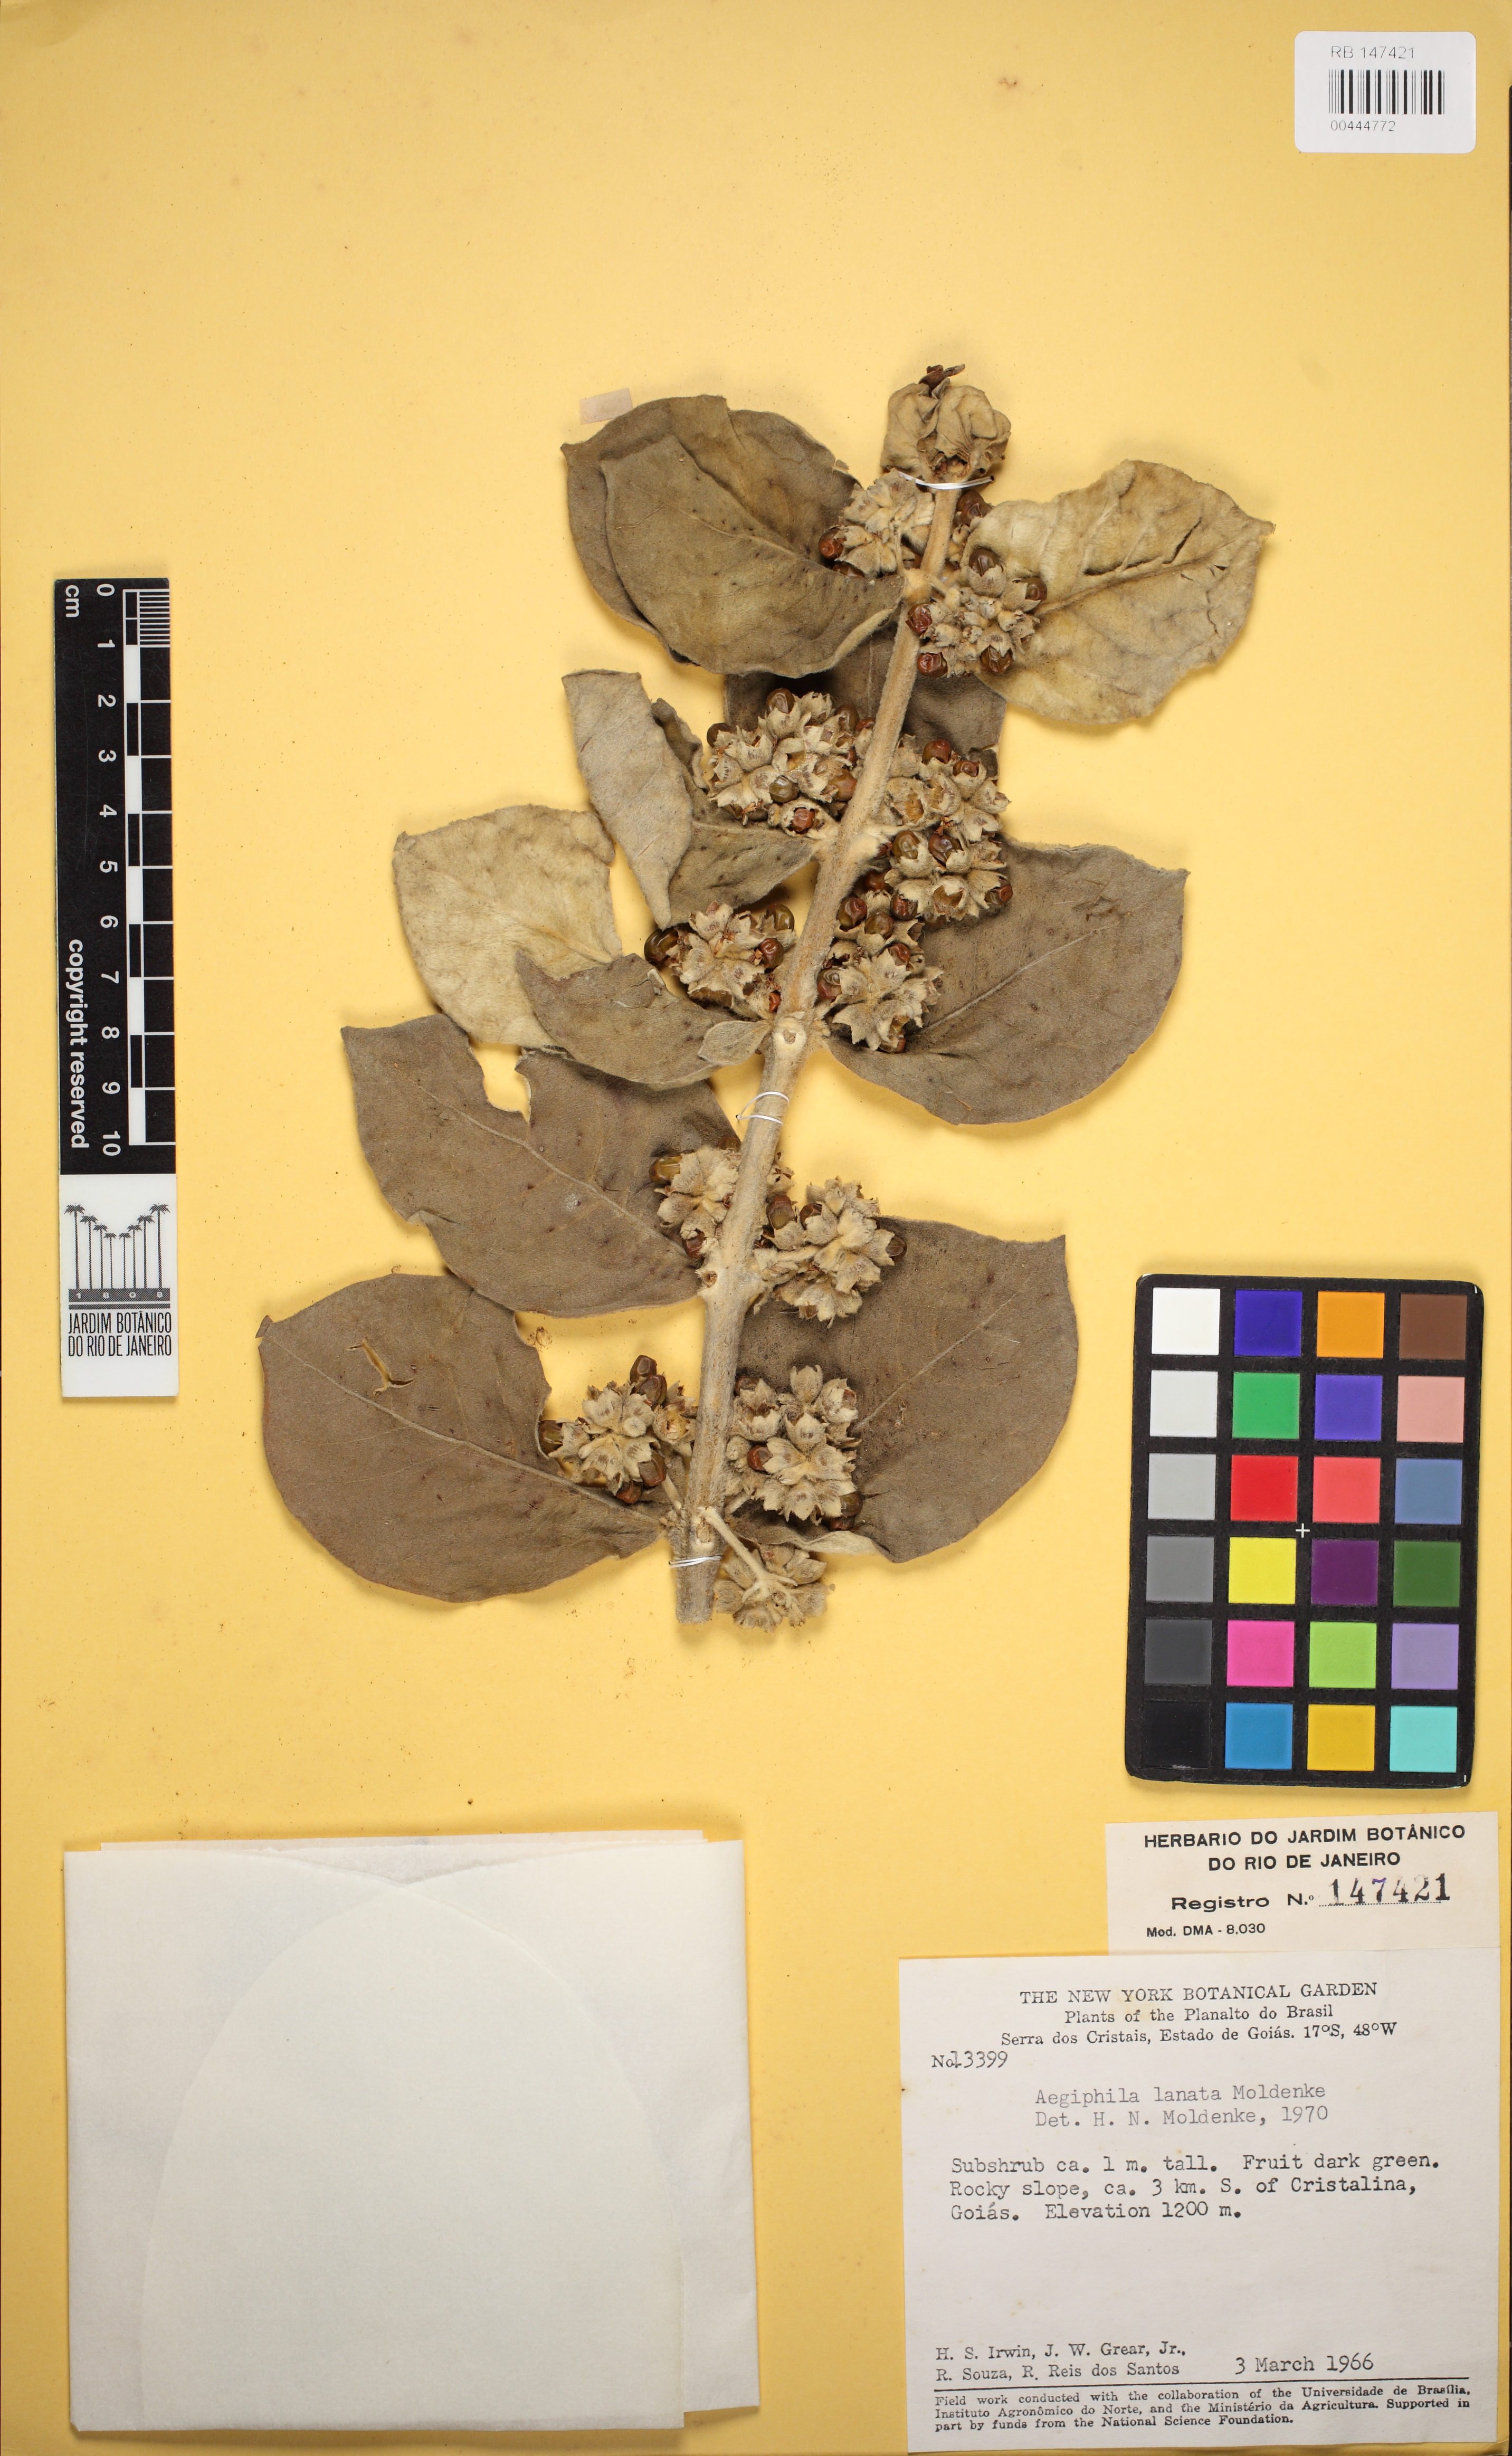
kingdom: Plantae
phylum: Tracheophyta
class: Magnoliopsida
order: Lamiales
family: Lamiaceae
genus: Aegiphila
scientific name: Aegiphila lanata
